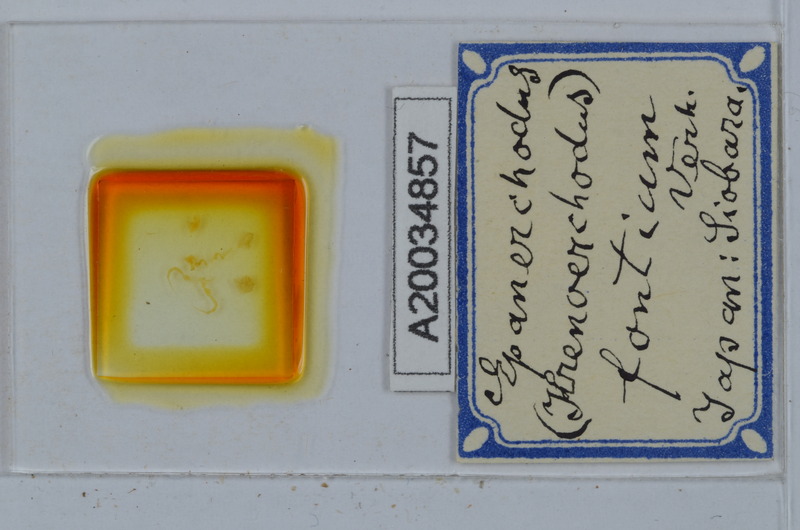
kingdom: Animalia
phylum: Arthropoda
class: Diplopoda
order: Polydesmida
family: Polydesmidae
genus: Epanerchodus
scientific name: Epanerchodus fontium
